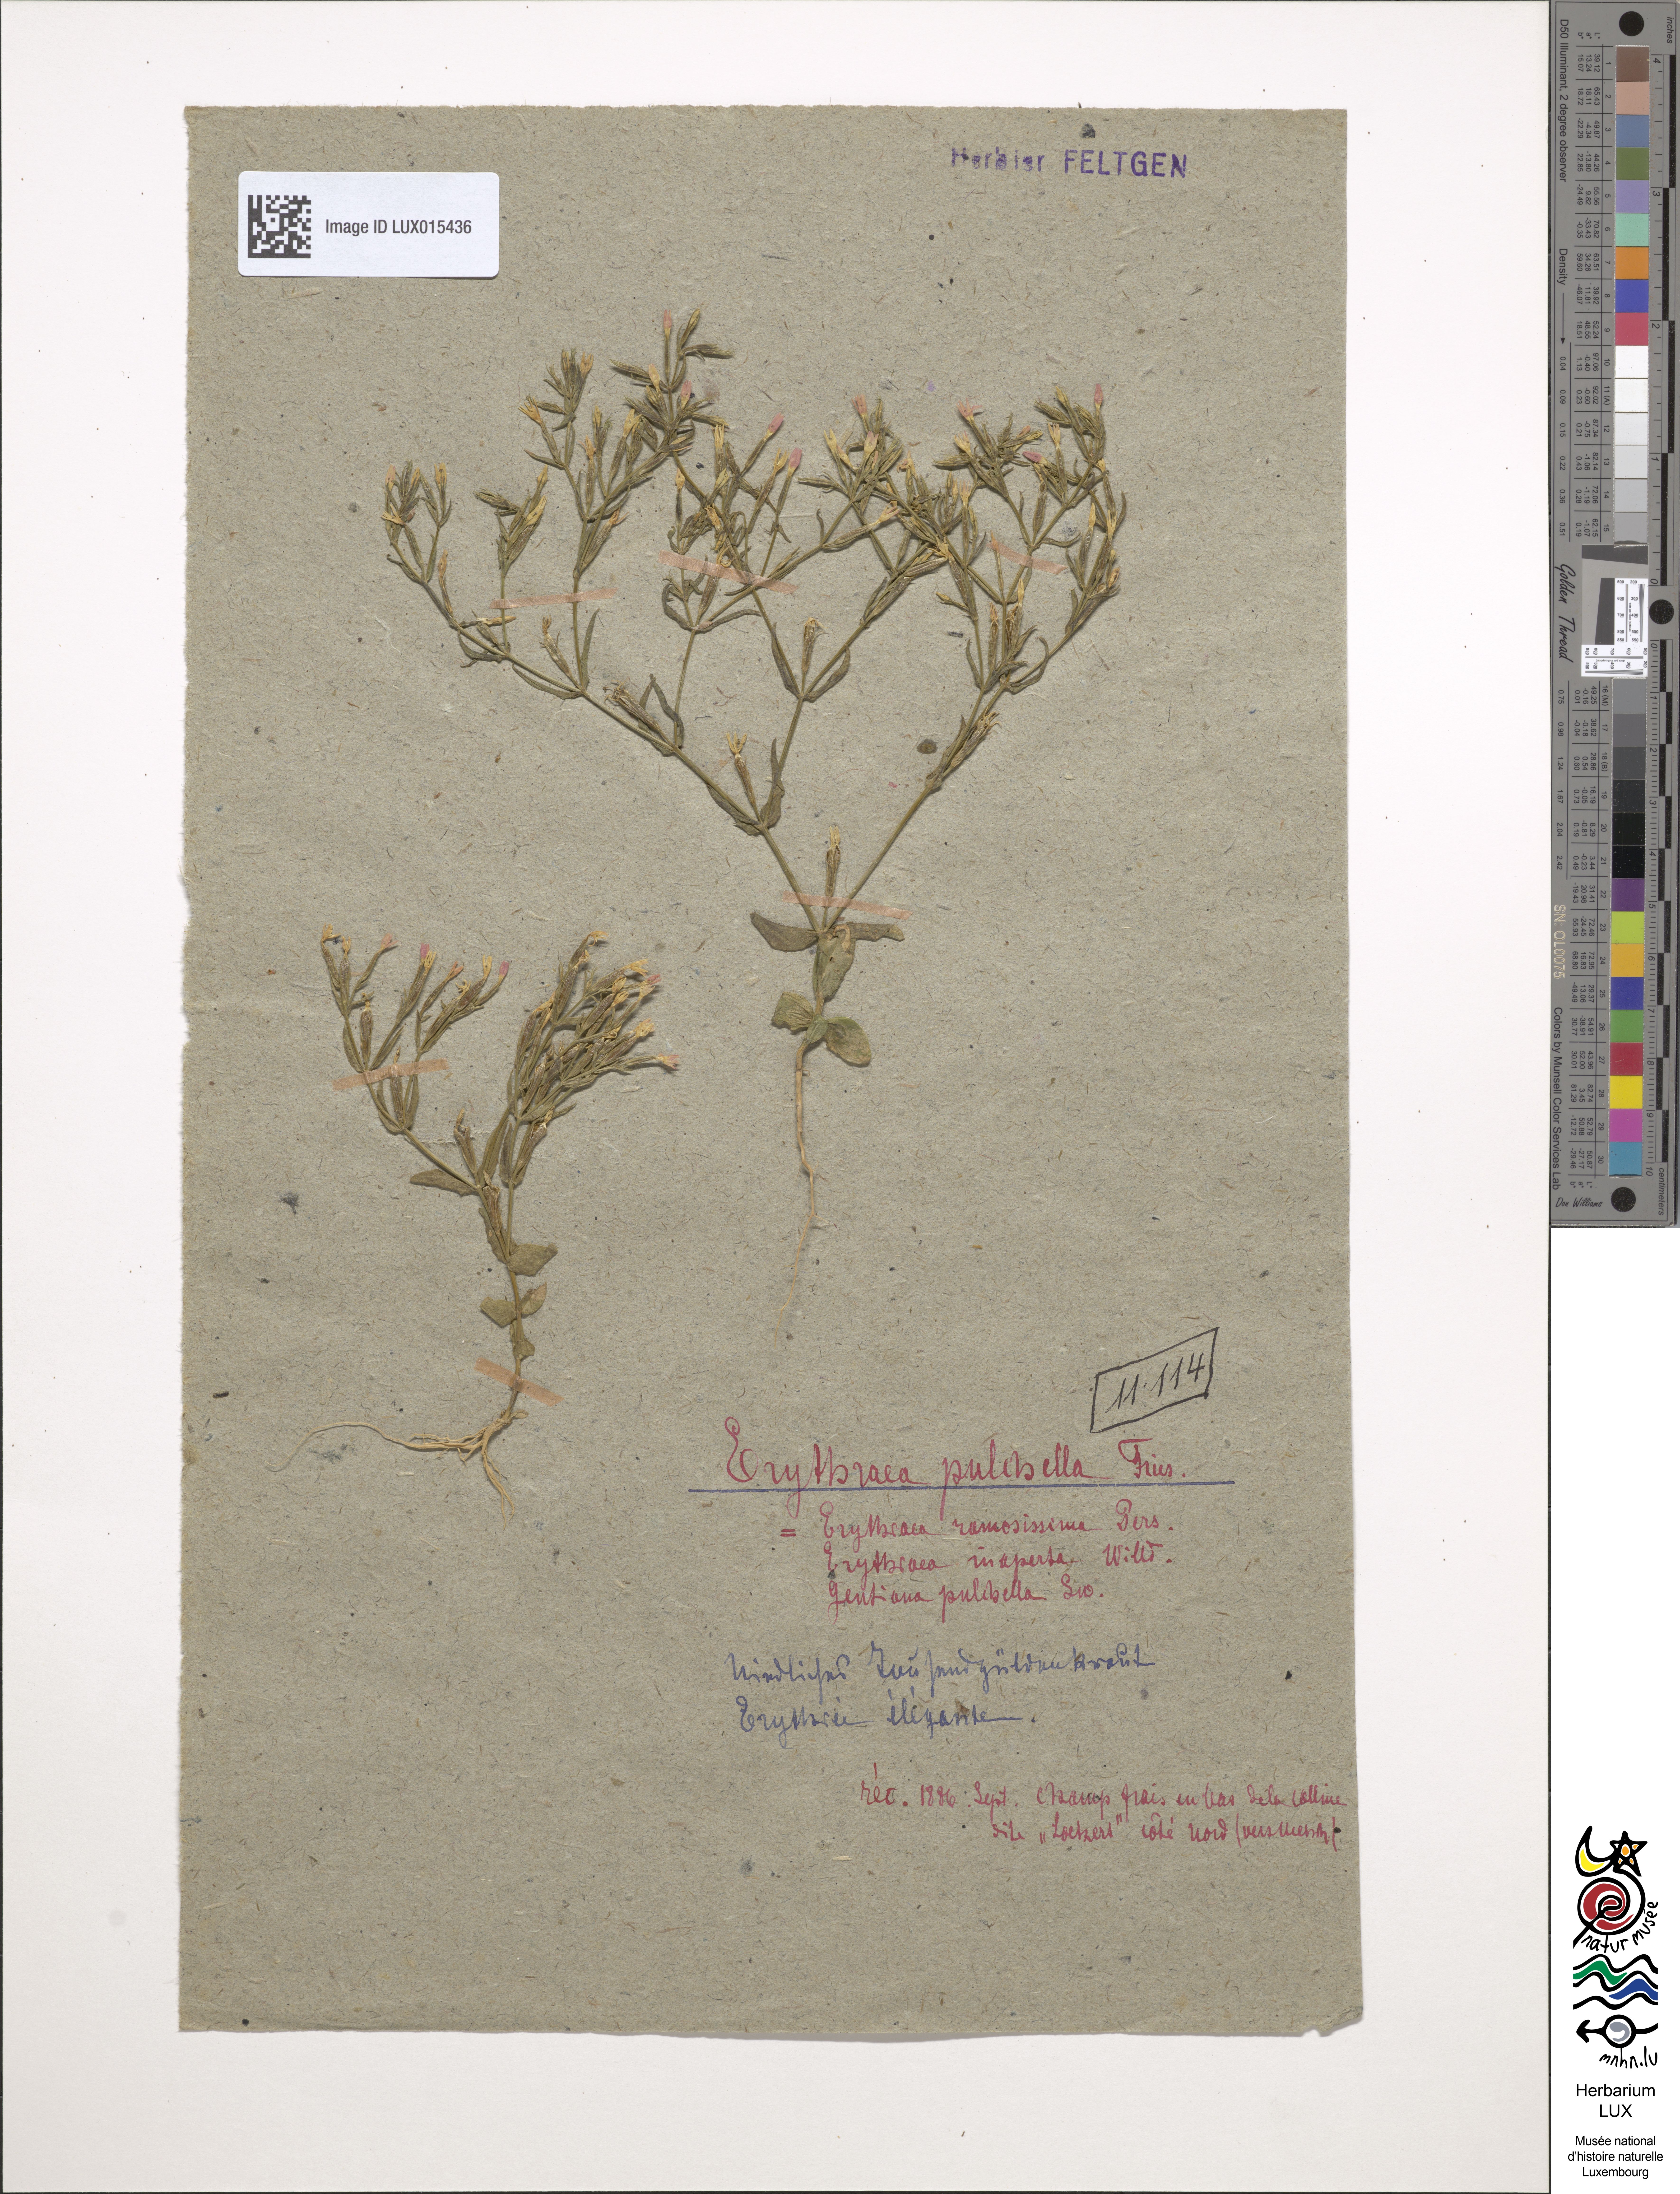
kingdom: Plantae
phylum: Tracheophyta
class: Magnoliopsida
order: Gentianales
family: Gentianaceae
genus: Centaurium
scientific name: Centaurium pulchellum
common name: Lesser centaury
